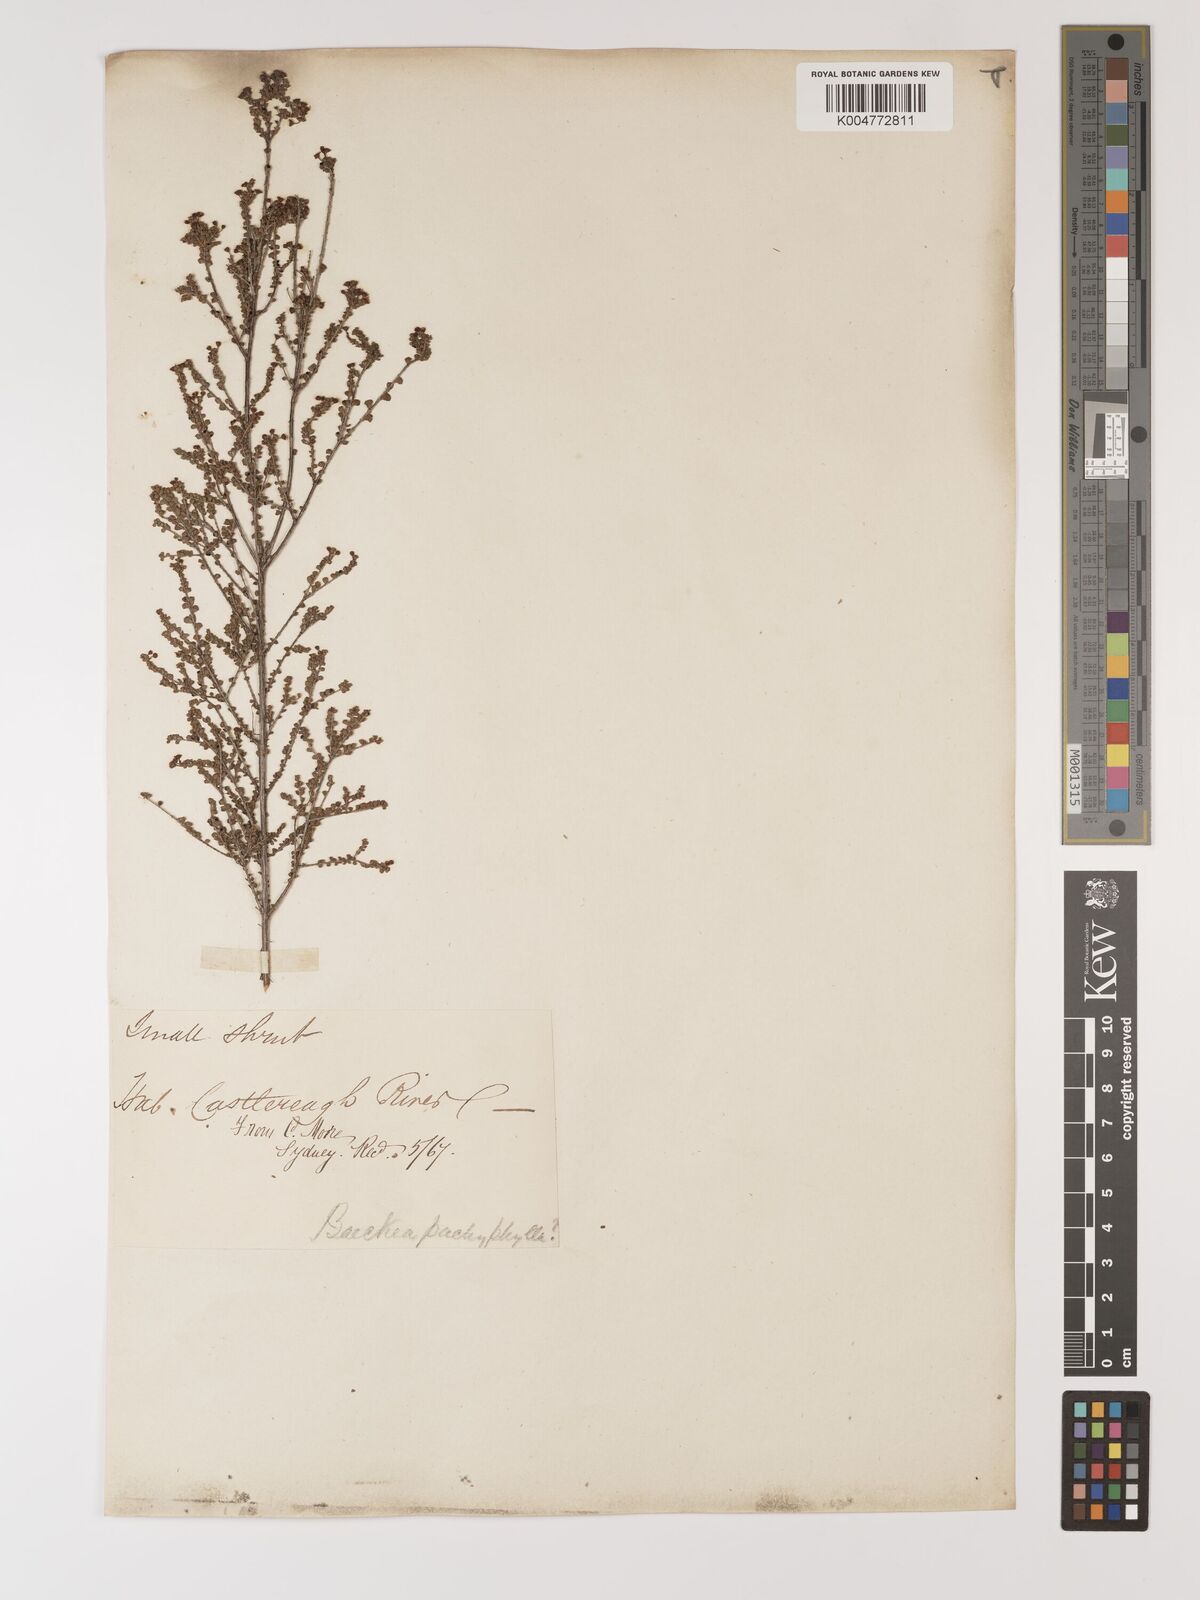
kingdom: Plantae
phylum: Tracheophyta
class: Magnoliopsida
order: Myrtales
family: Myrtaceae
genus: Austrobaeckea
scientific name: Austrobaeckea pachyphylla
